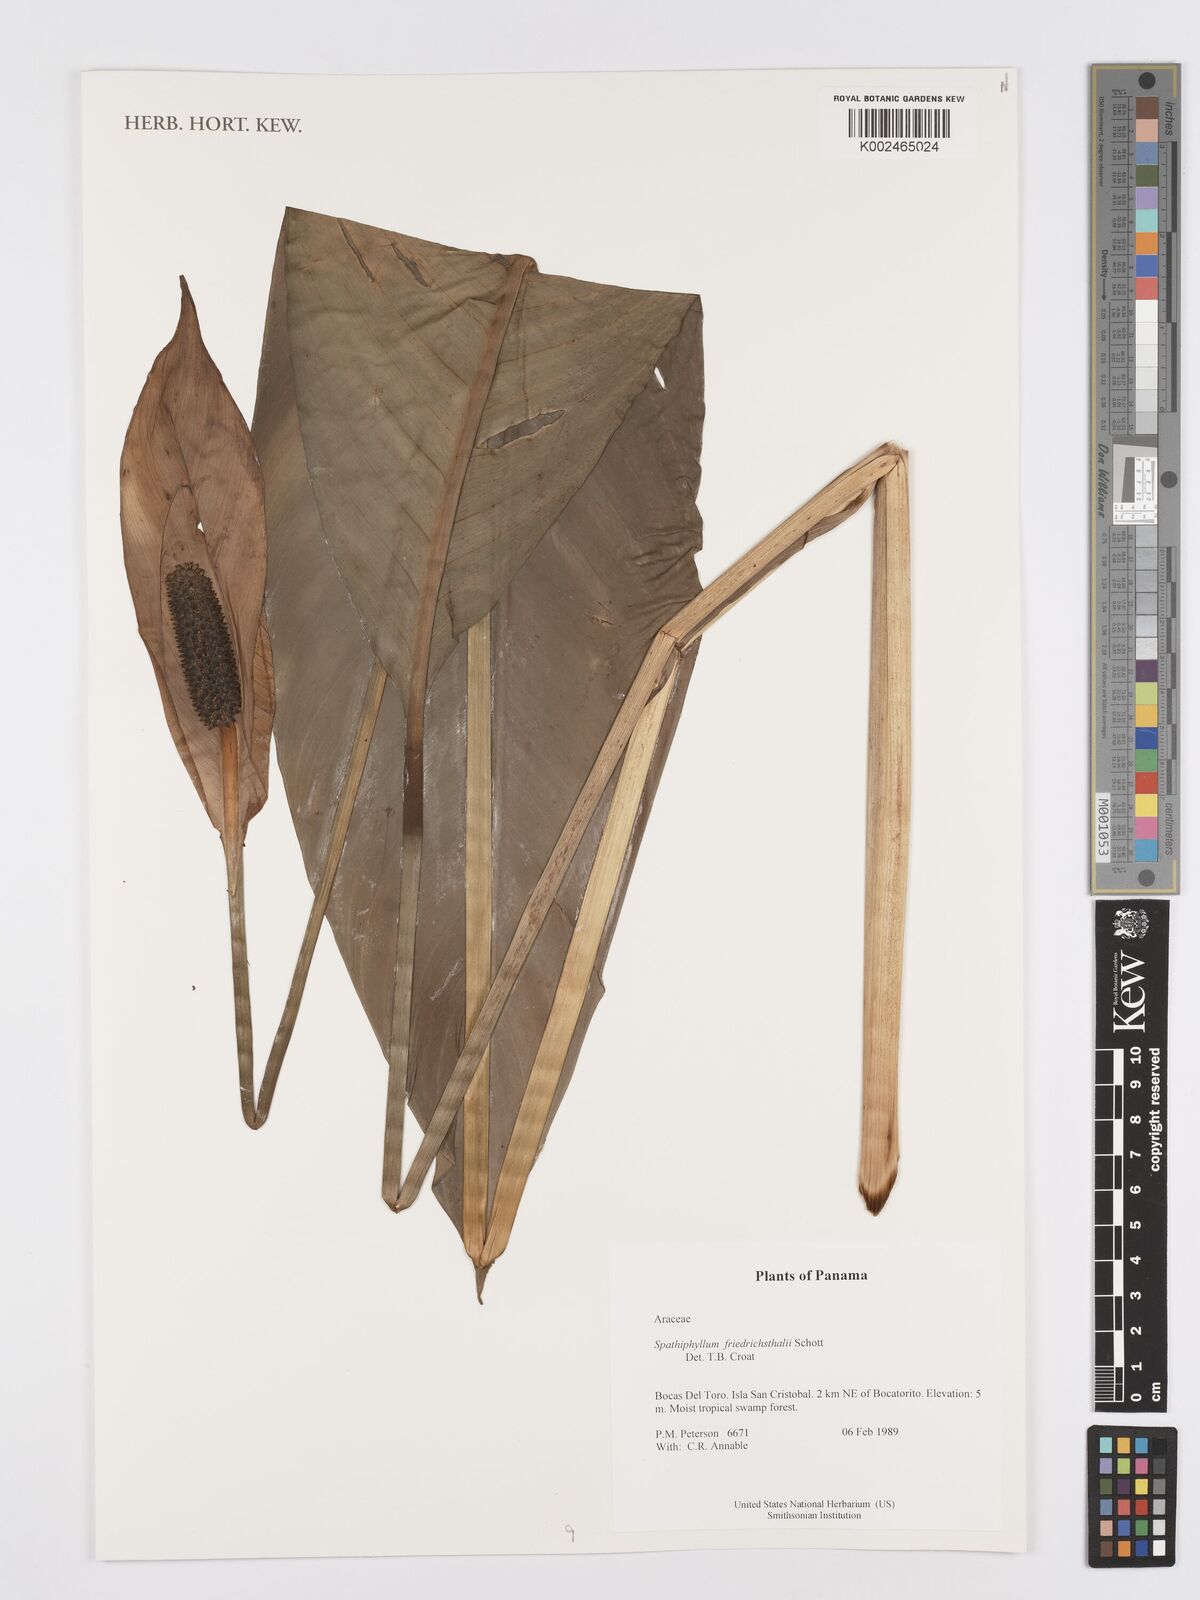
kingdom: Plantae
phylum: Tracheophyta
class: Liliopsida
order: Alismatales
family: Araceae
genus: Spathiphyllum
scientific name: Spathiphyllum friedrichsthalii
